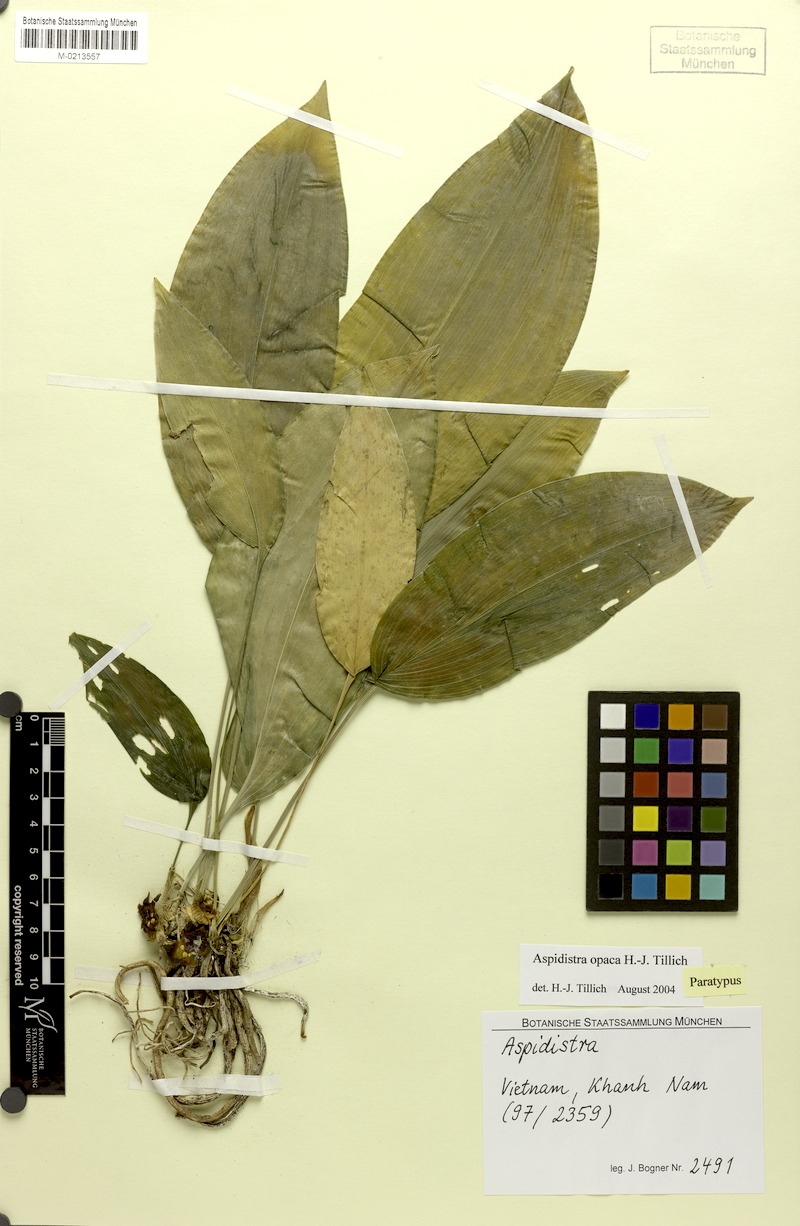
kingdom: Plantae
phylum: Tracheophyta
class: Liliopsida
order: Asparagales
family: Asparagaceae
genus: Aspidistra
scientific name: Aspidistra opaca
